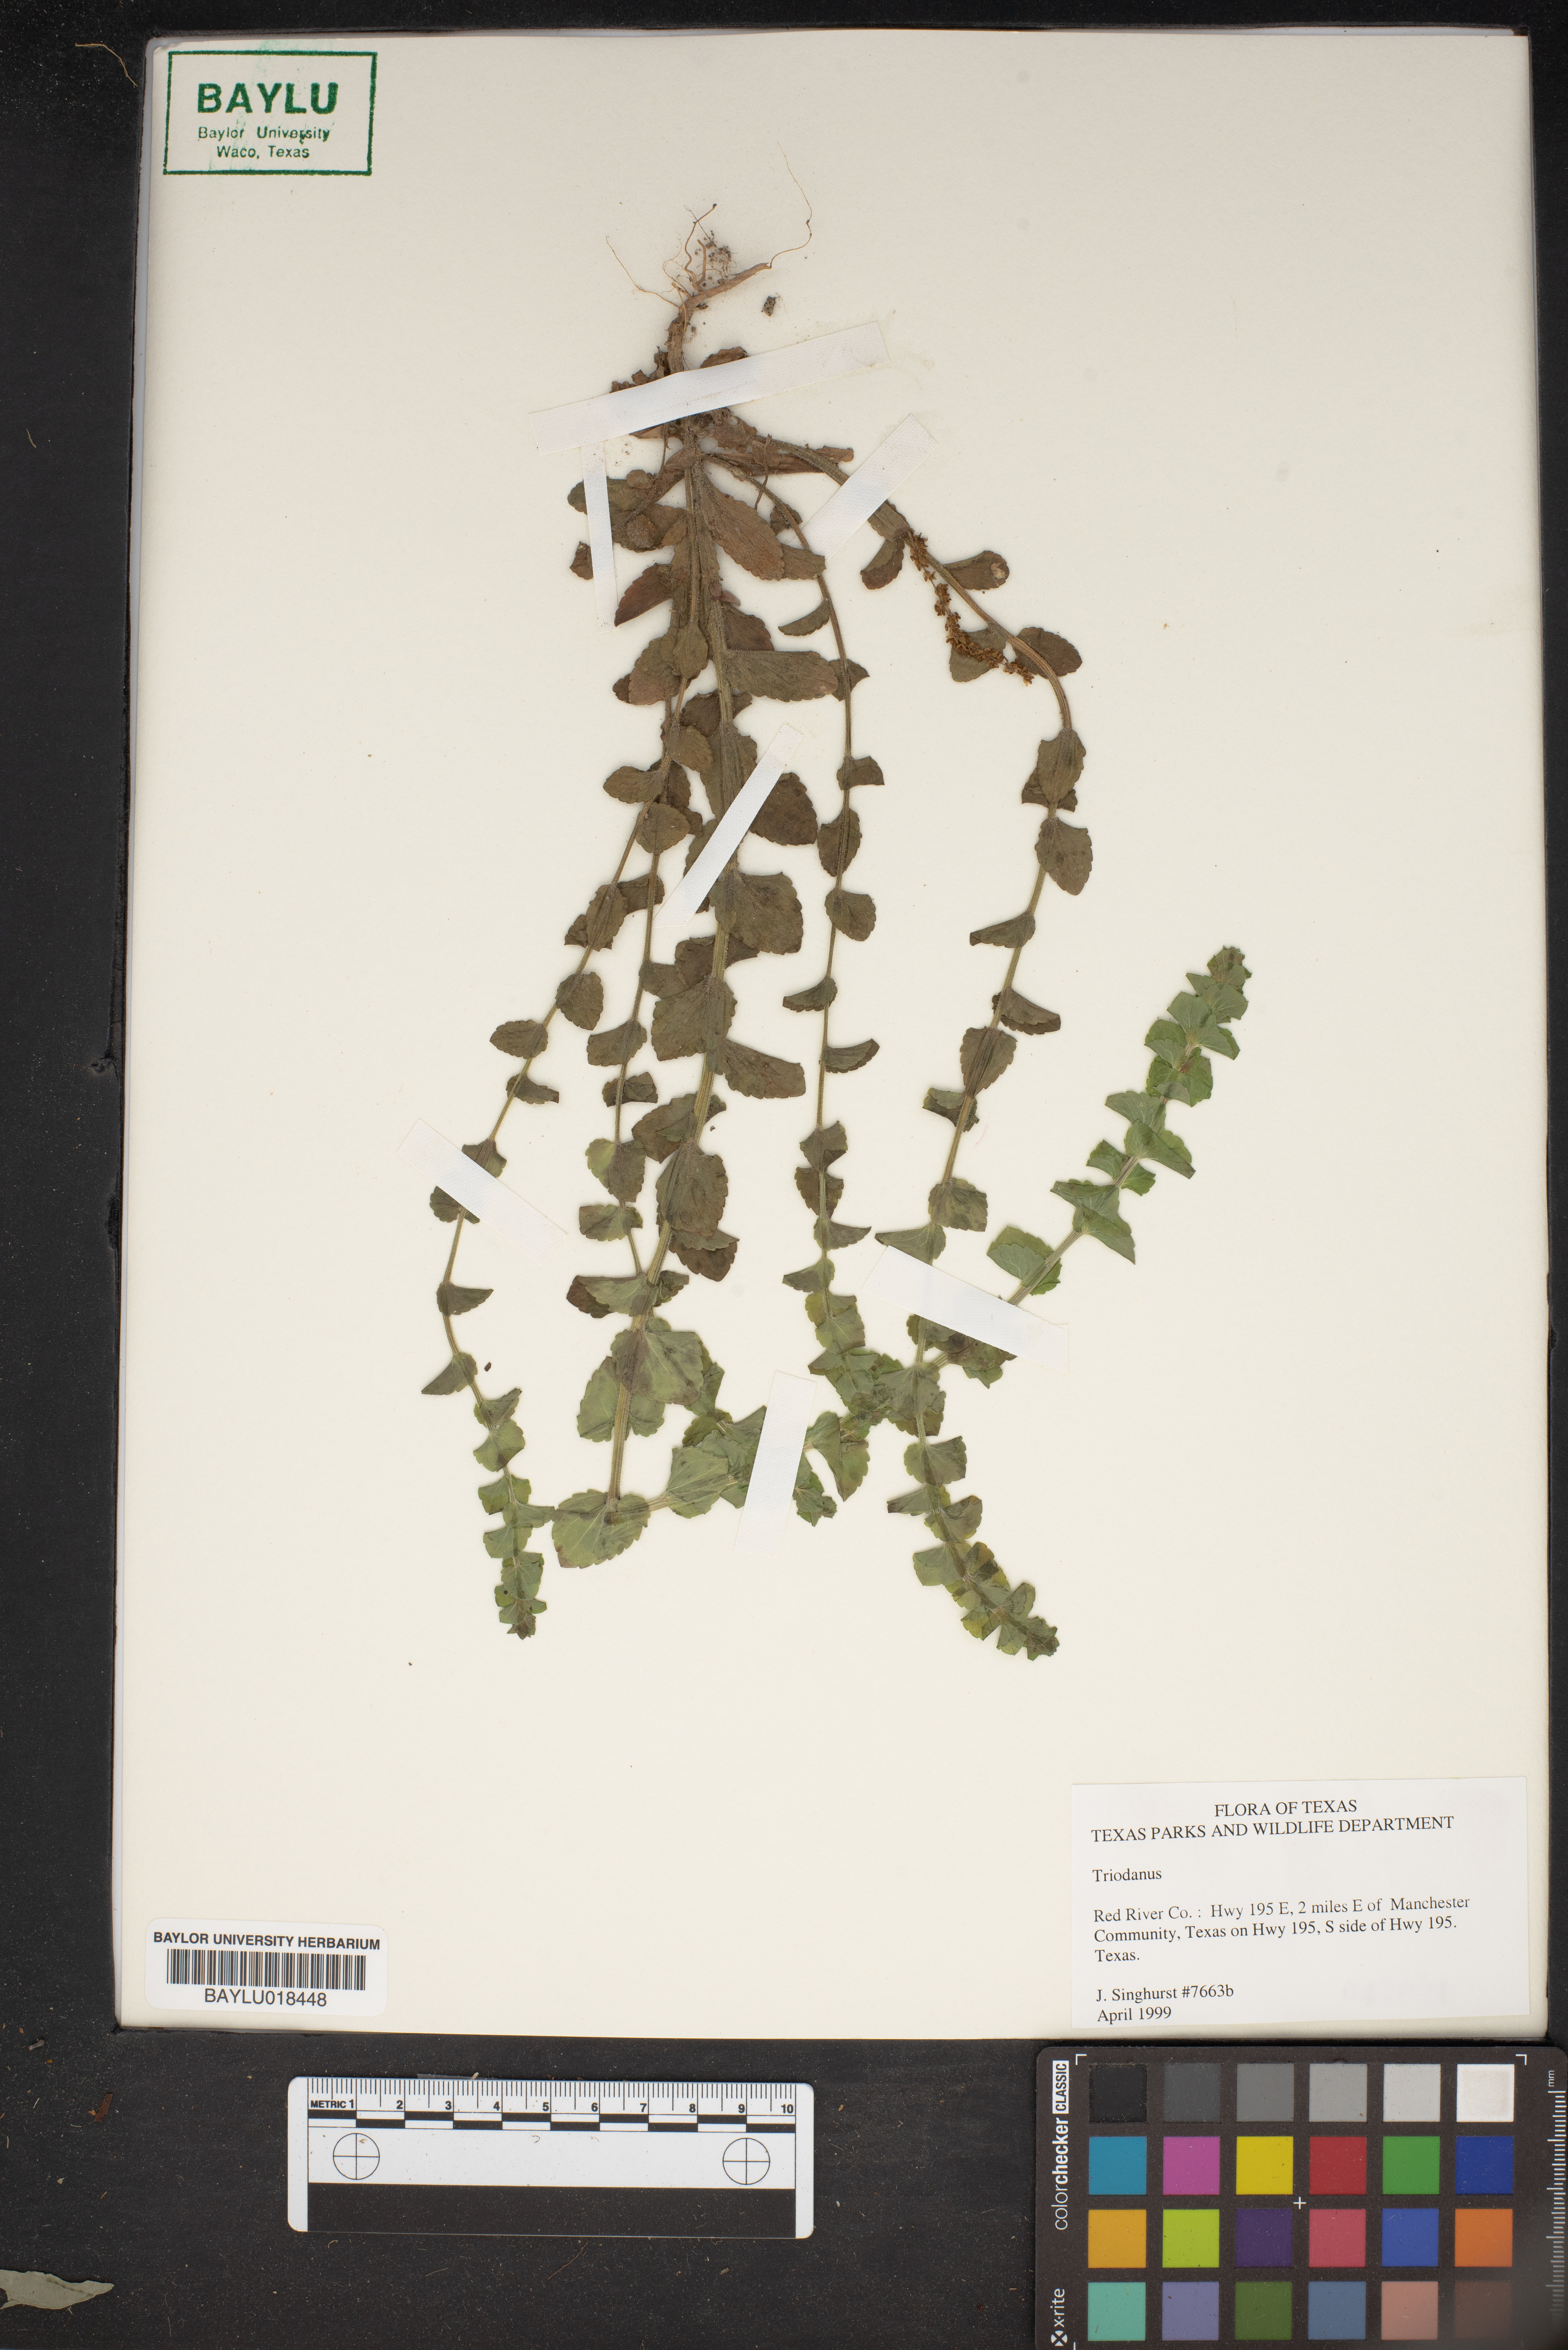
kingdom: Plantae
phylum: Tracheophyta
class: Magnoliopsida
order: Asterales
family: Campanulaceae
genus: Triodanis
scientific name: Triodanis
